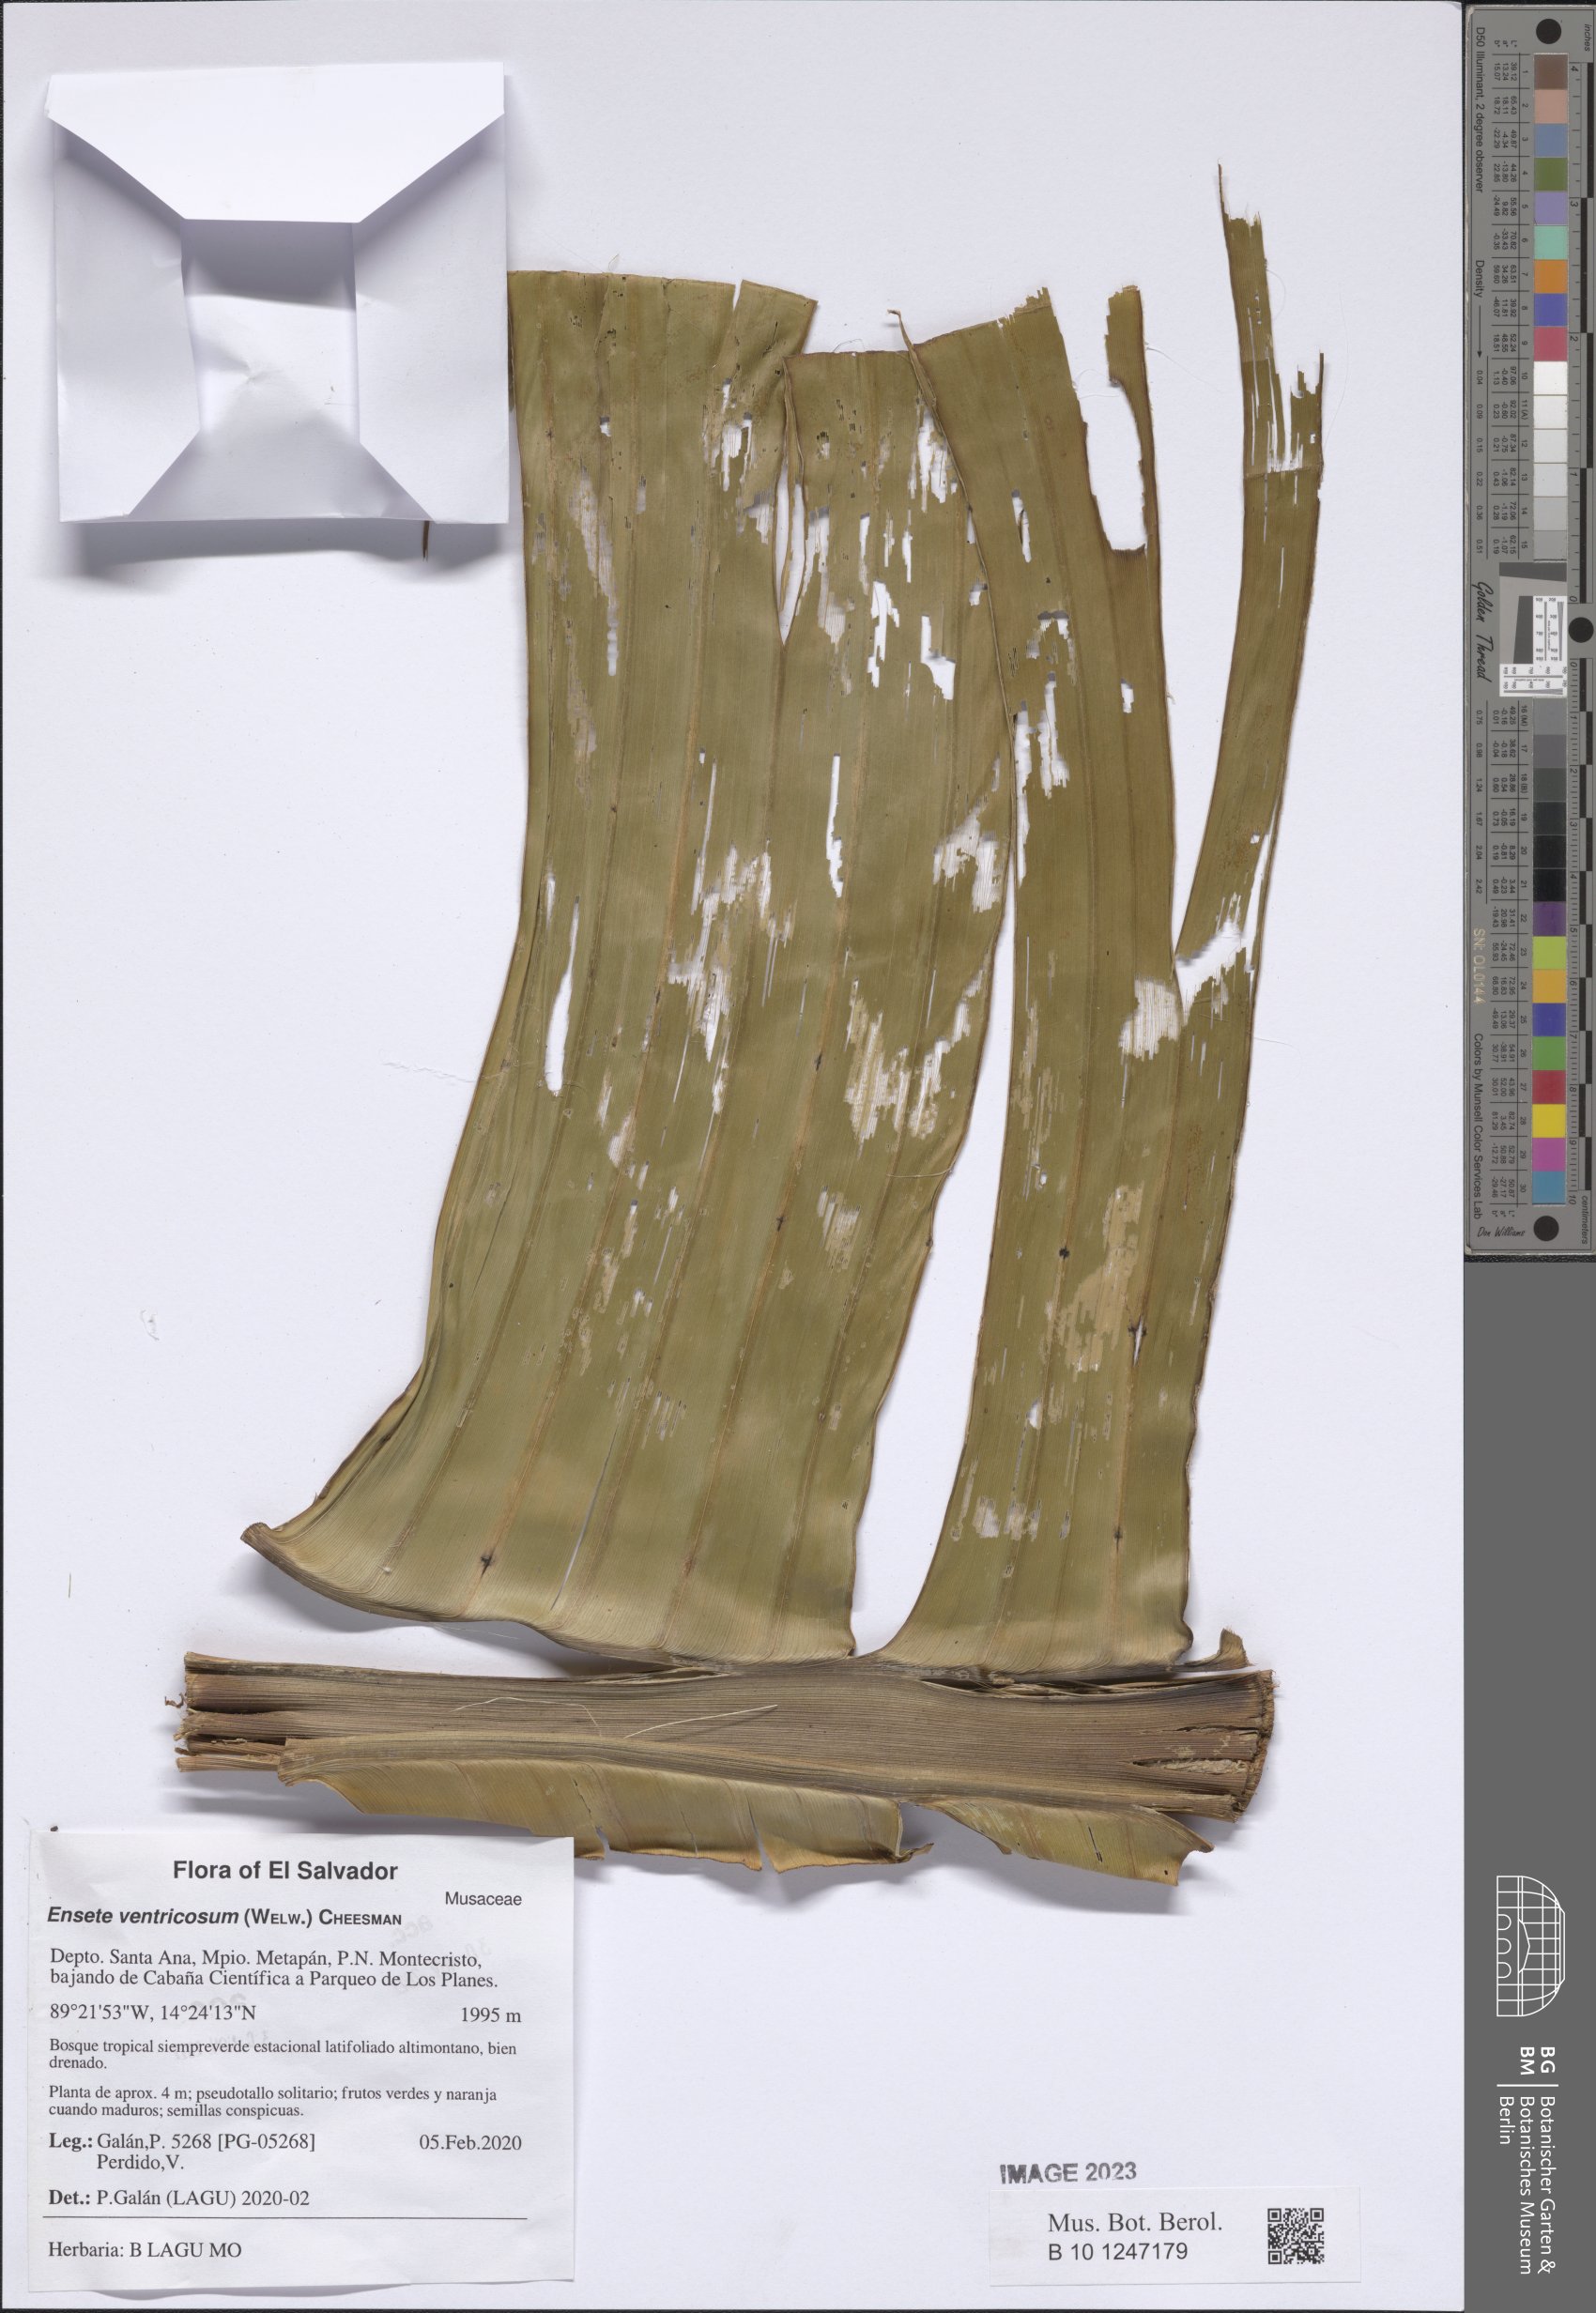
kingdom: Plantae
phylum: Tracheophyta
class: Magnoliopsida
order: Brassicales
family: Moringaceae
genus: Moringa
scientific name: Moringa oleifera
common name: Horseradish-tree
